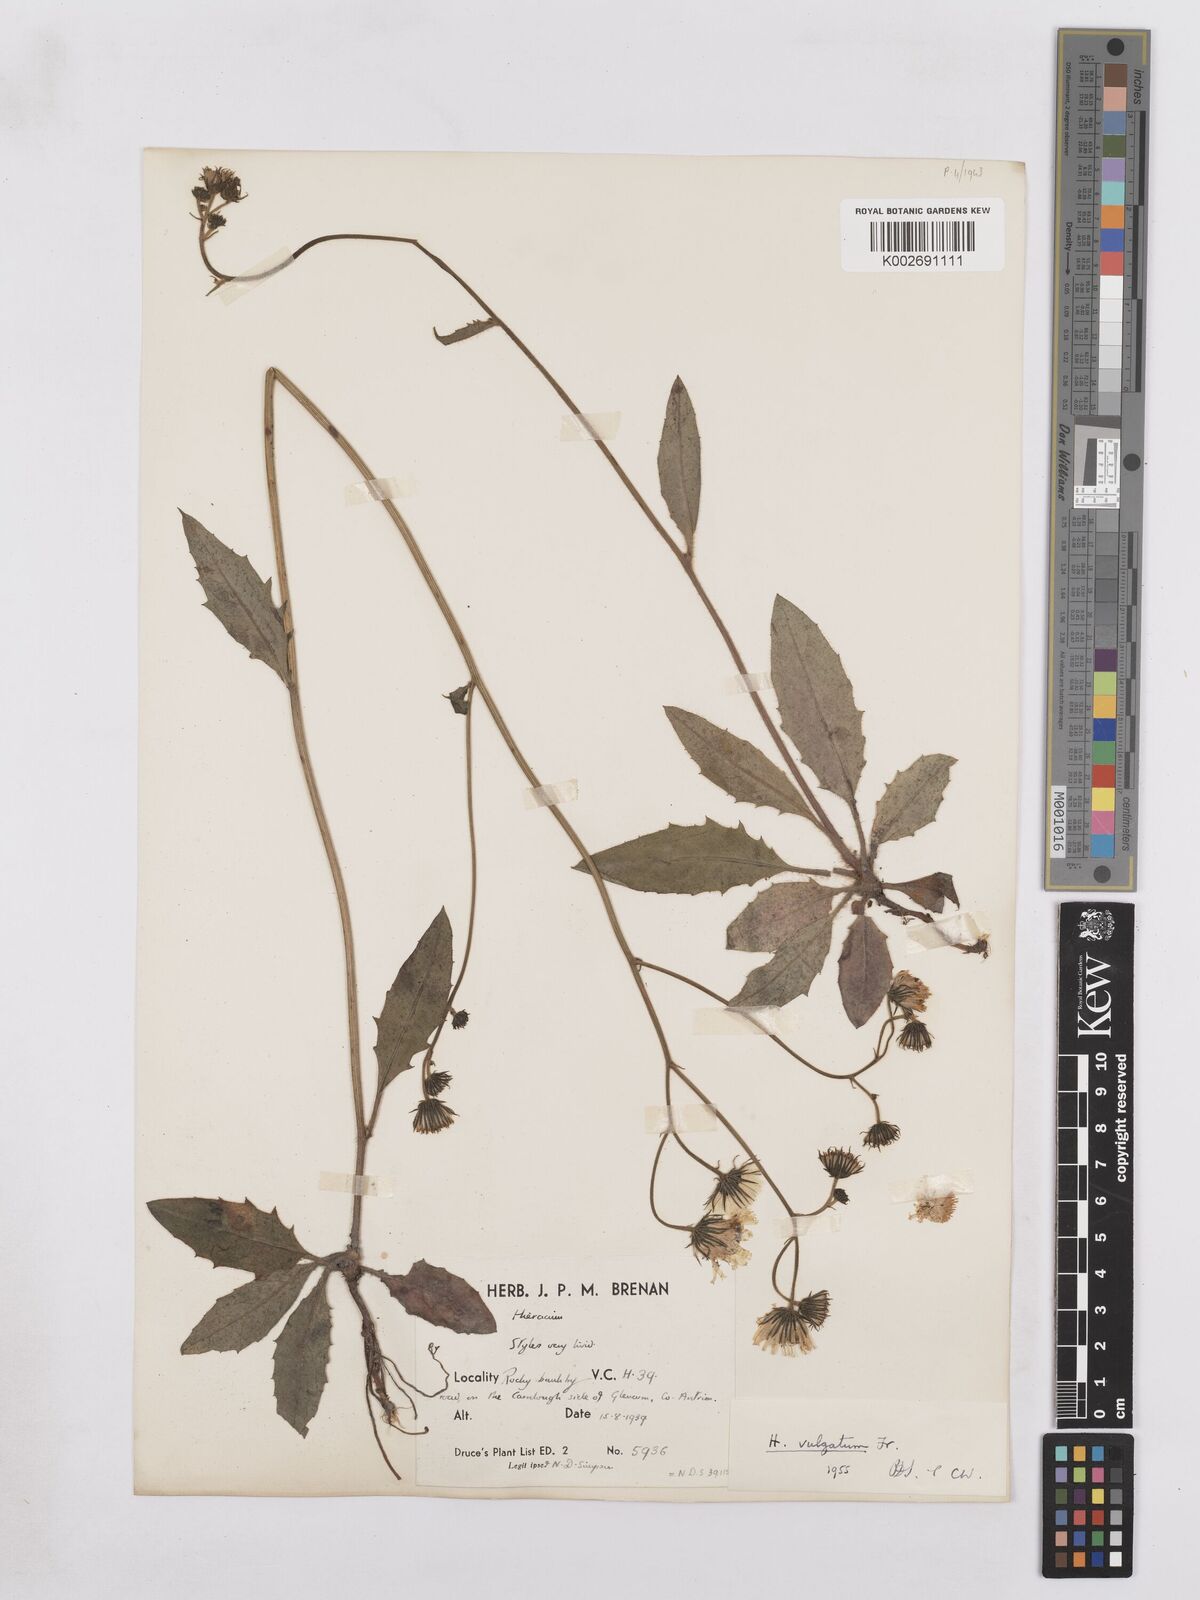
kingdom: Plantae
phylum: Tracheophyta
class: Magnoliopsida
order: Asterales
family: Asteraceae
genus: Hieracium
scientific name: Hieracium lachenalii
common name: Common hawkweed
